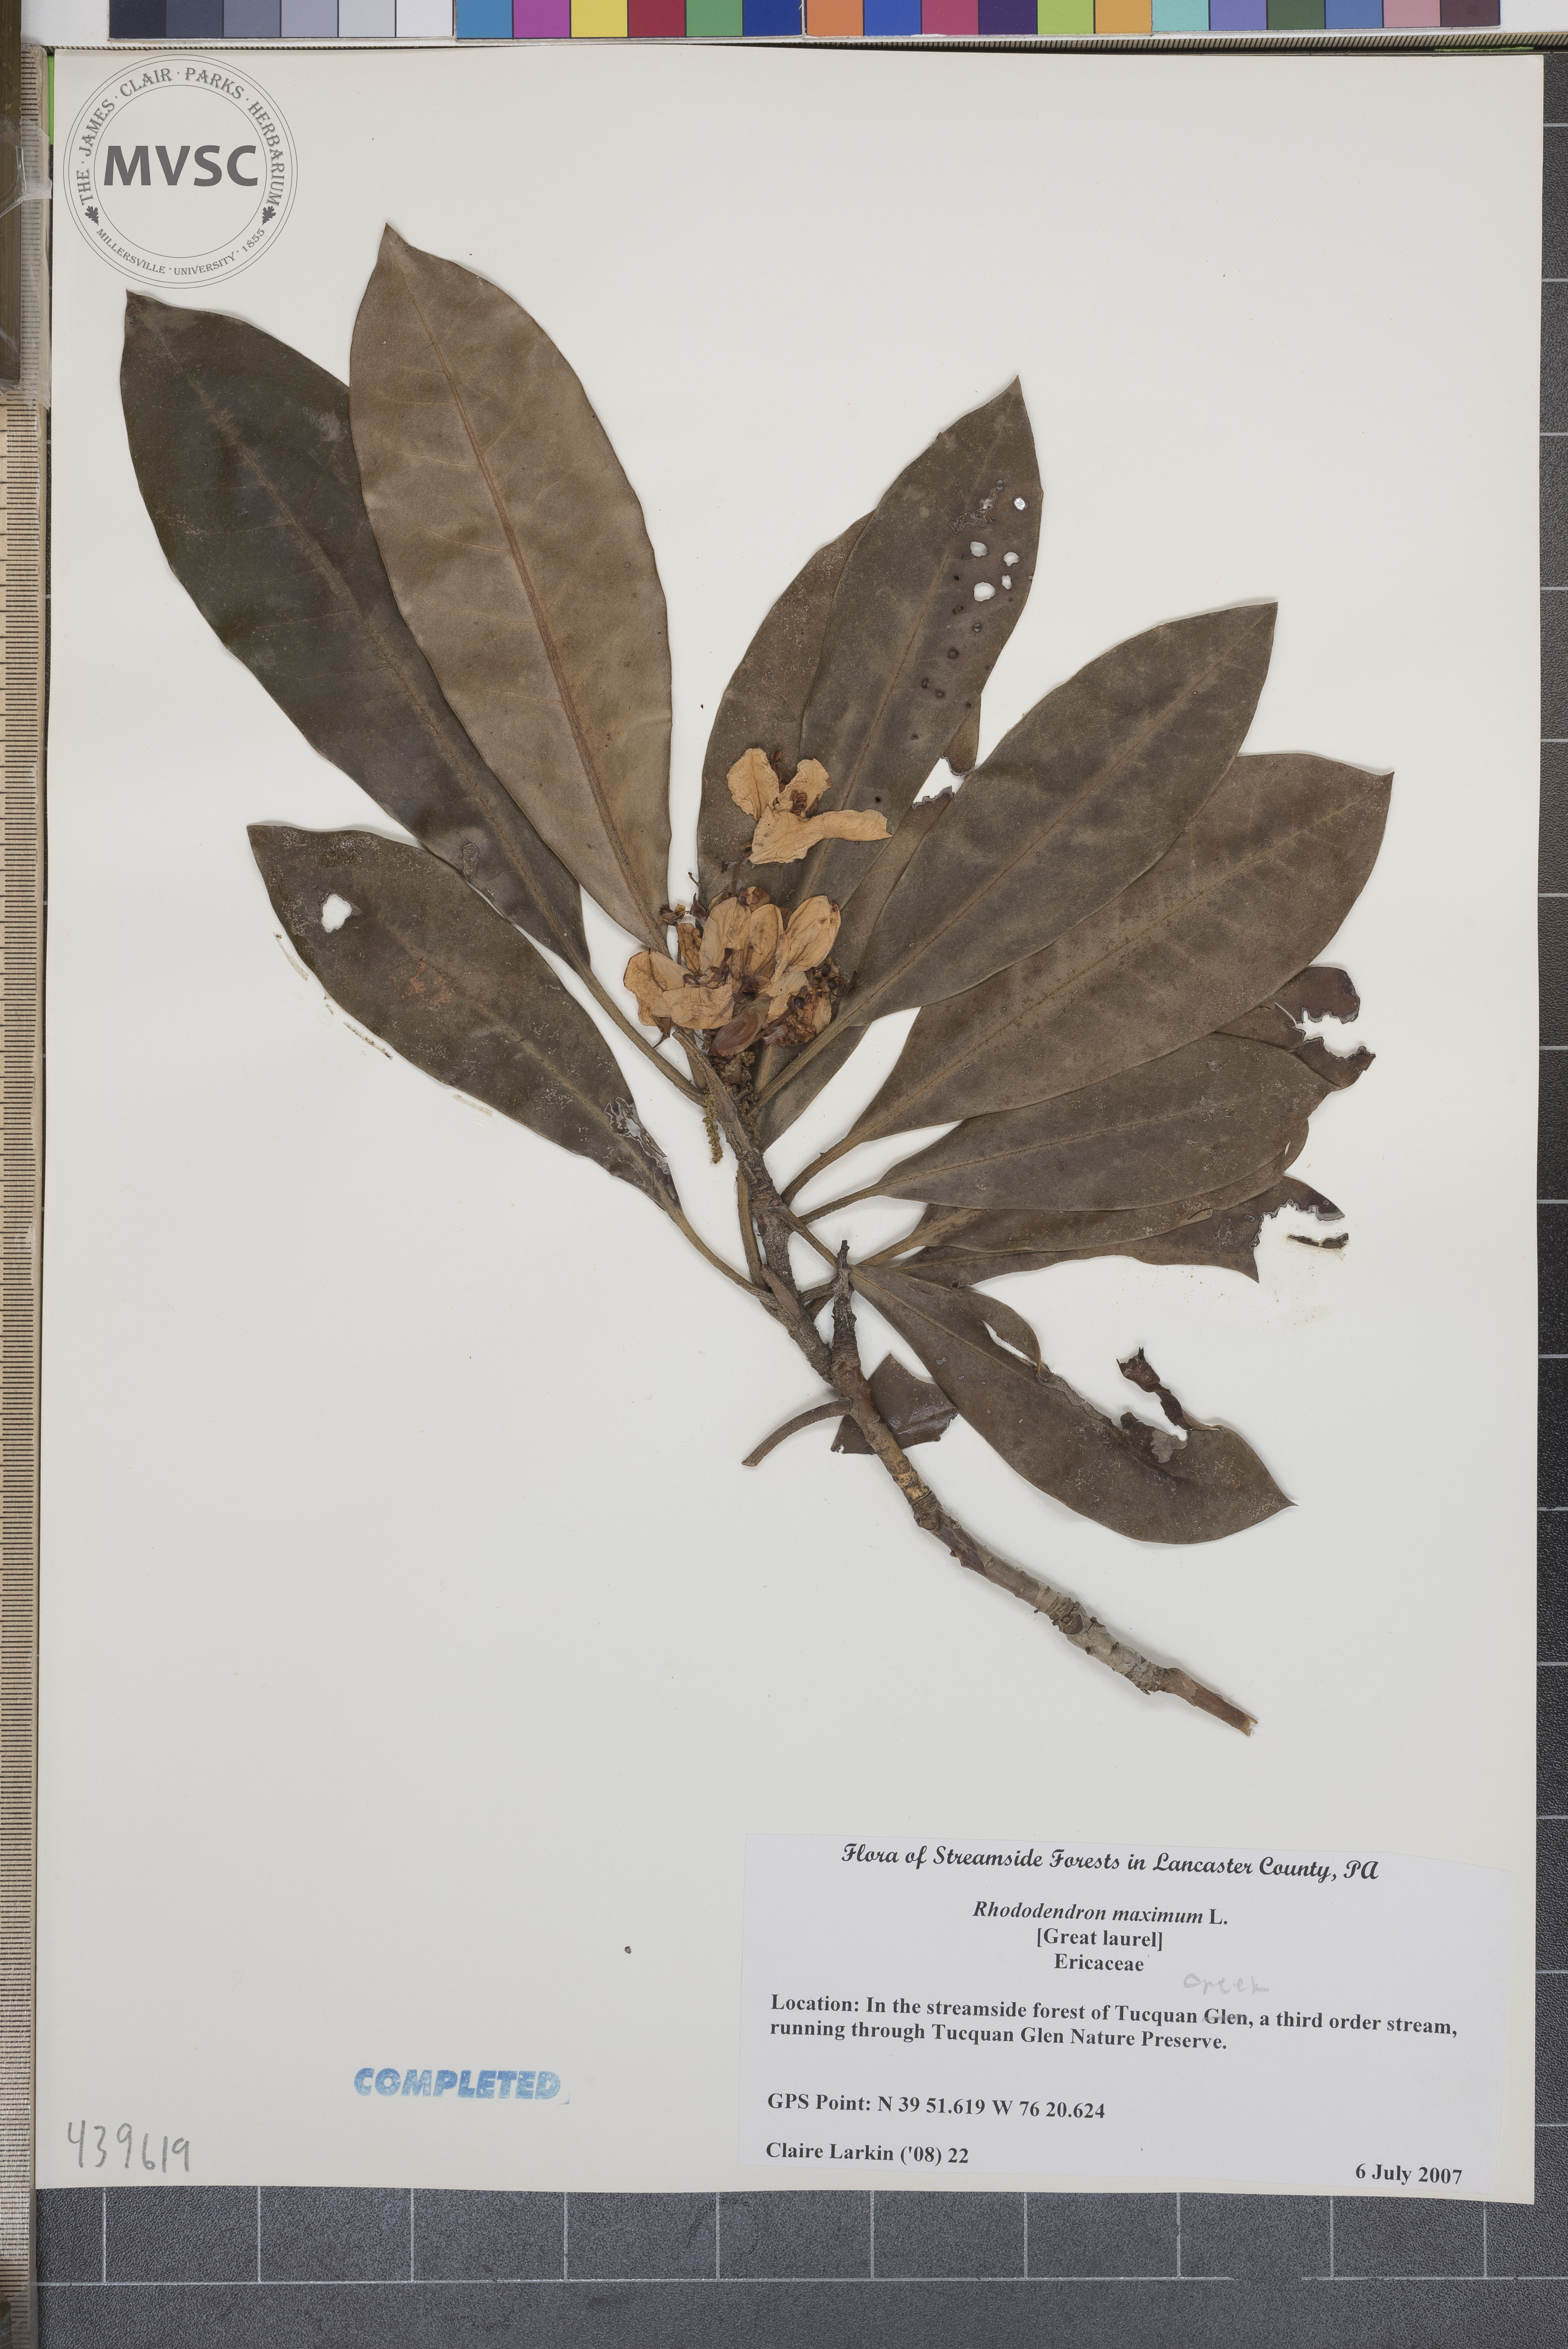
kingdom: Plantae
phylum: Tracheophyta
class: Magnoliopsida
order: Ericales
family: Ericaceae
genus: Rhododendron
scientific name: Rhododendron maximum
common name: Great laurel
